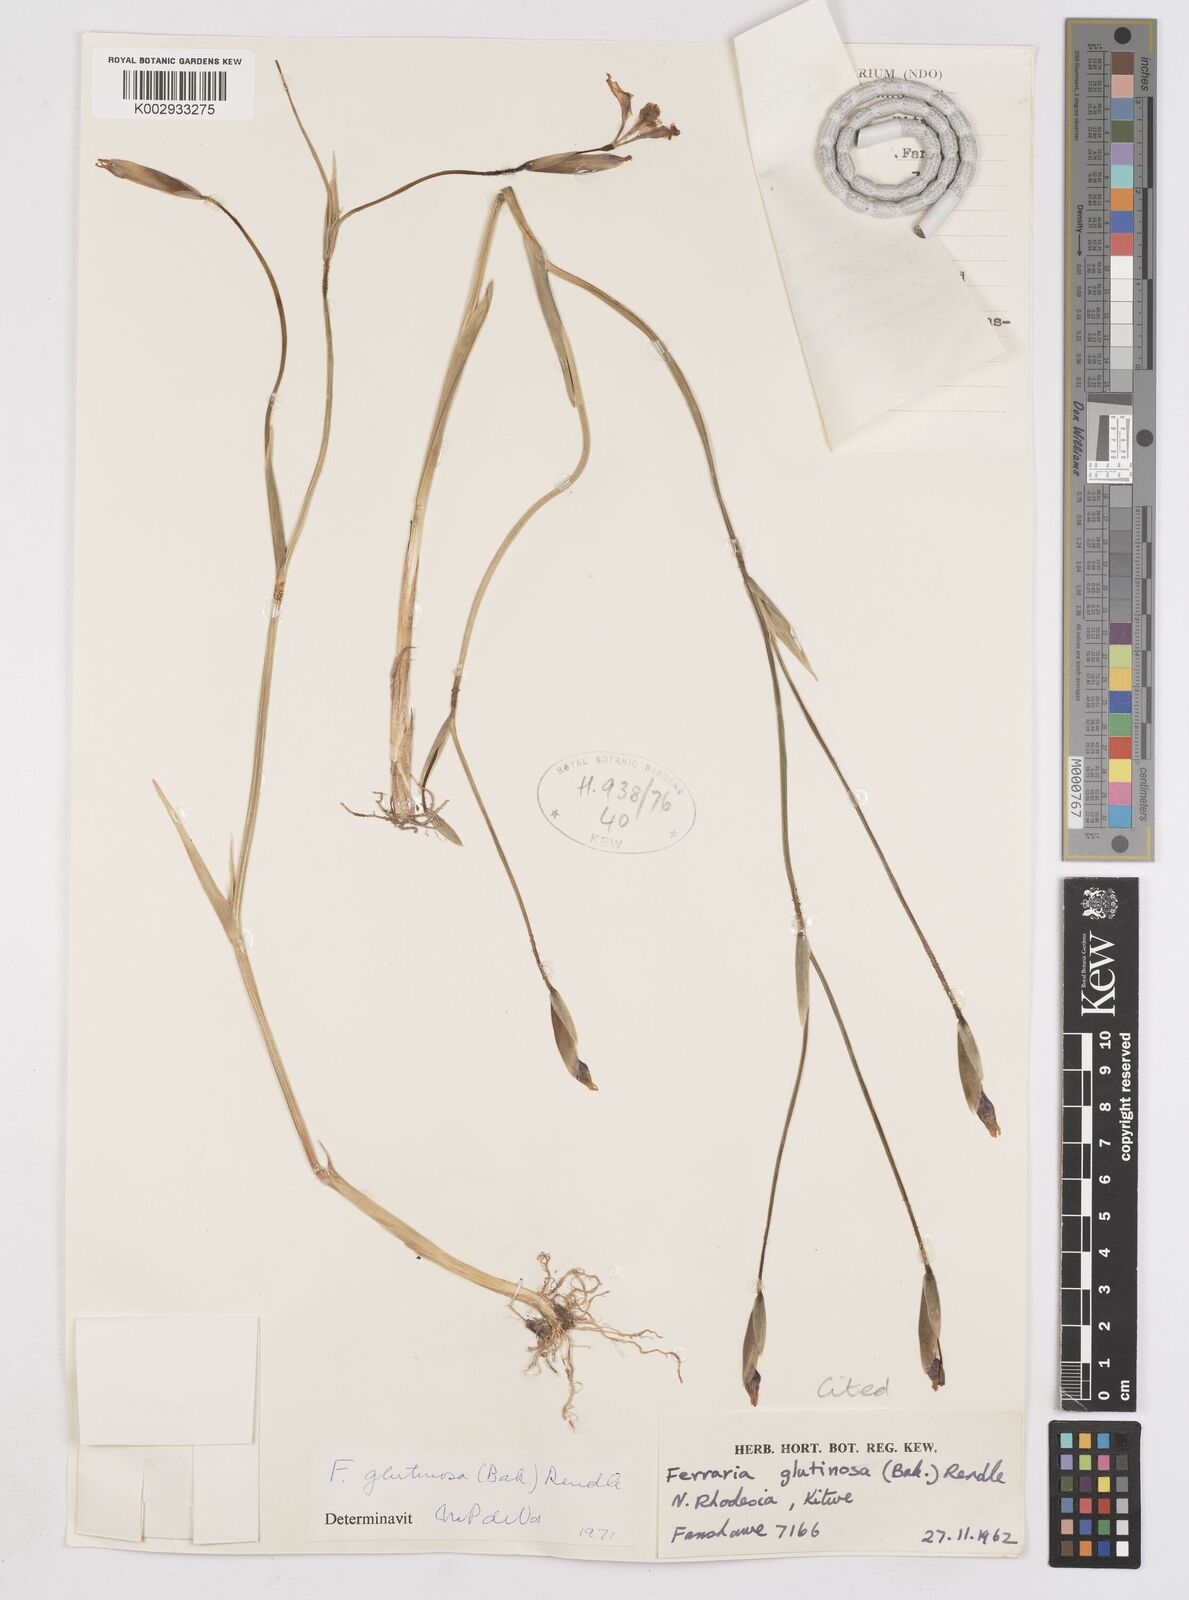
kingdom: Plantae
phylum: Tracheophyta
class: Liliopsida
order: Asparagales
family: Iridaceae
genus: Ferraria
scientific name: Ferraria
